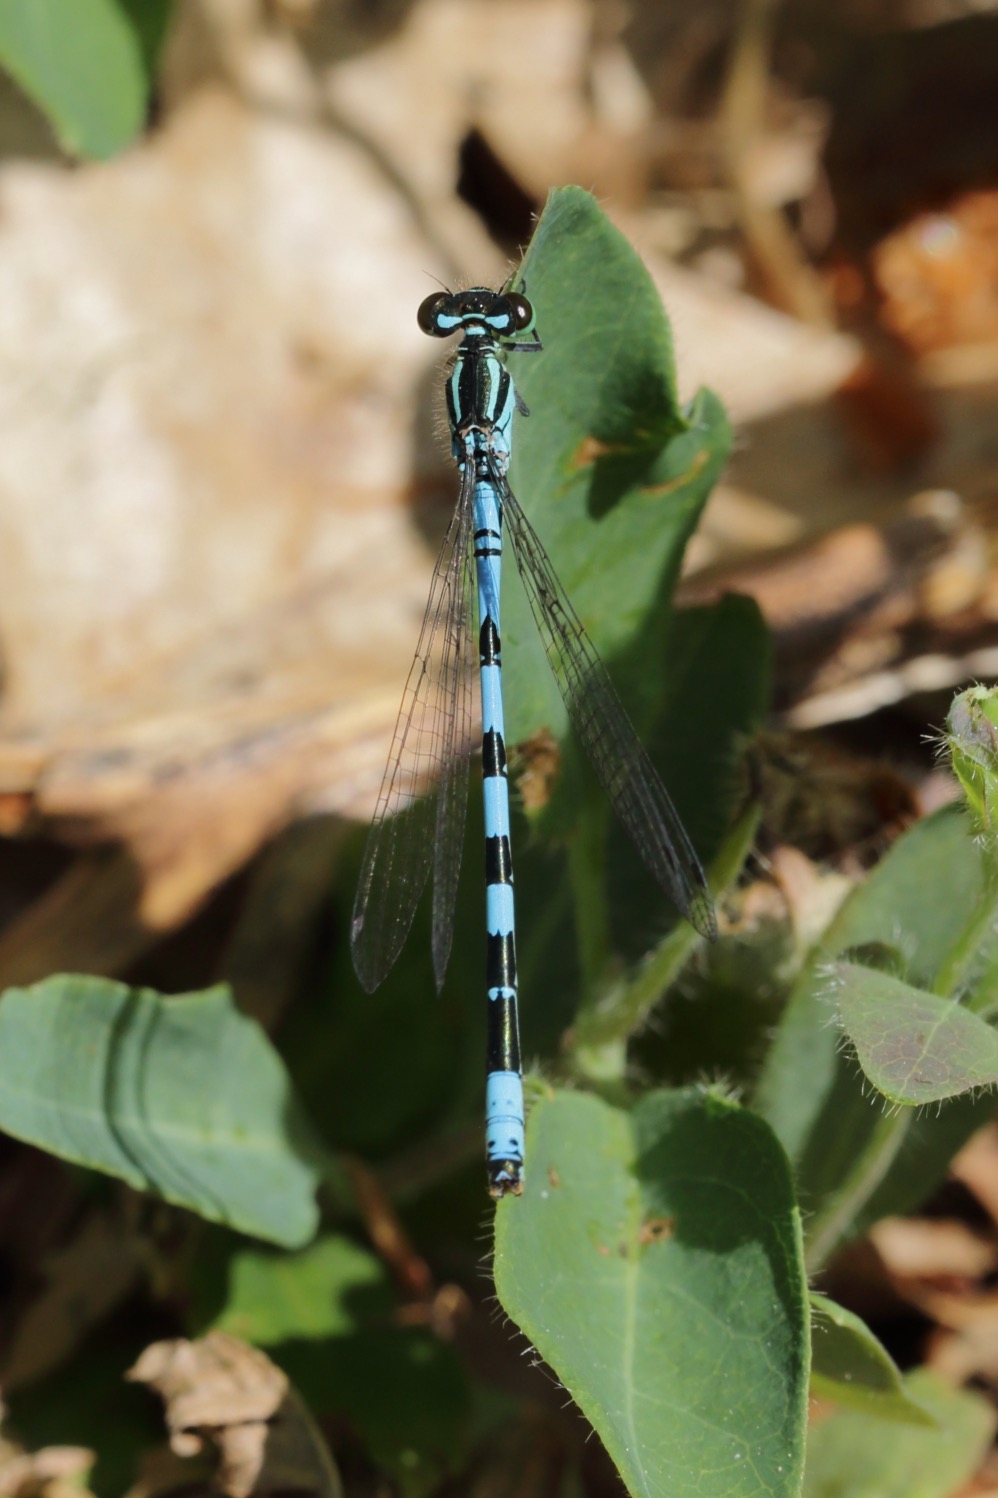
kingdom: Animalia
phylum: Arthropoda
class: Insecta
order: Odonata
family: Coenagrionidae
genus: Coenagrion
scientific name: Coenagrion hastulatum
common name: Spyd-vandnymfe
